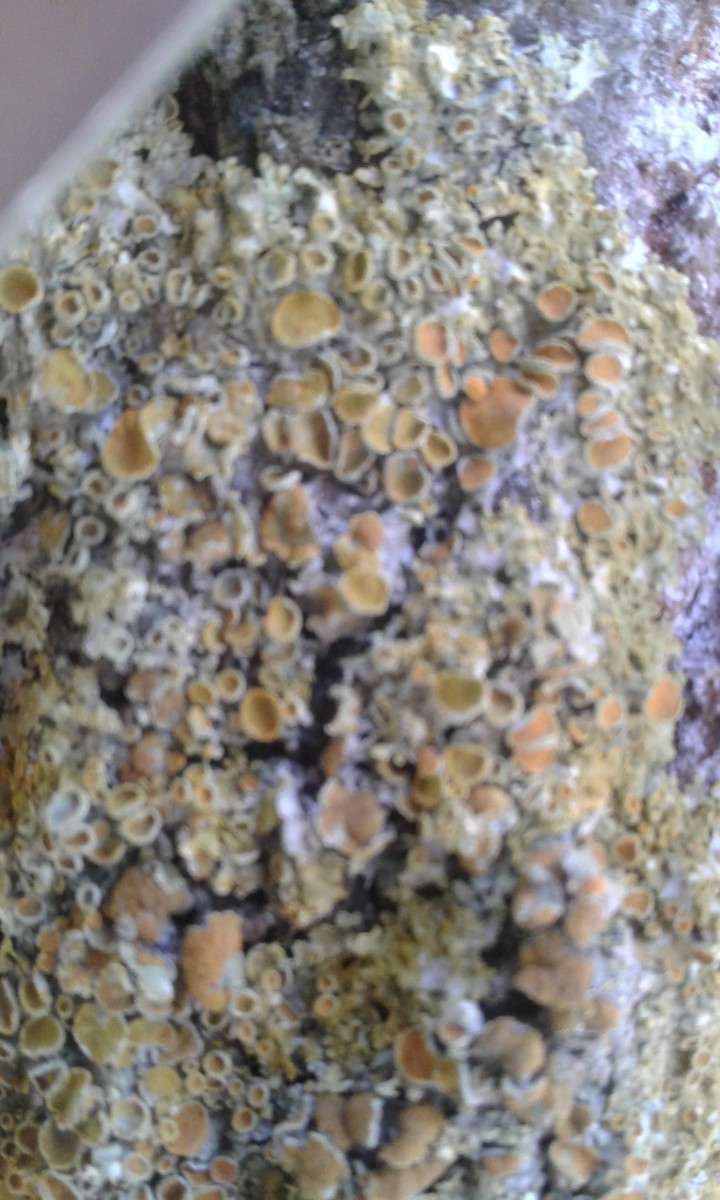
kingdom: Fungi
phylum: Ascomycota
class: Lecanoromycetes
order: Teloschistales
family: Teloschistaceae
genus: Xanthoria
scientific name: Xanthoria parietina
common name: almindelig væggelav
